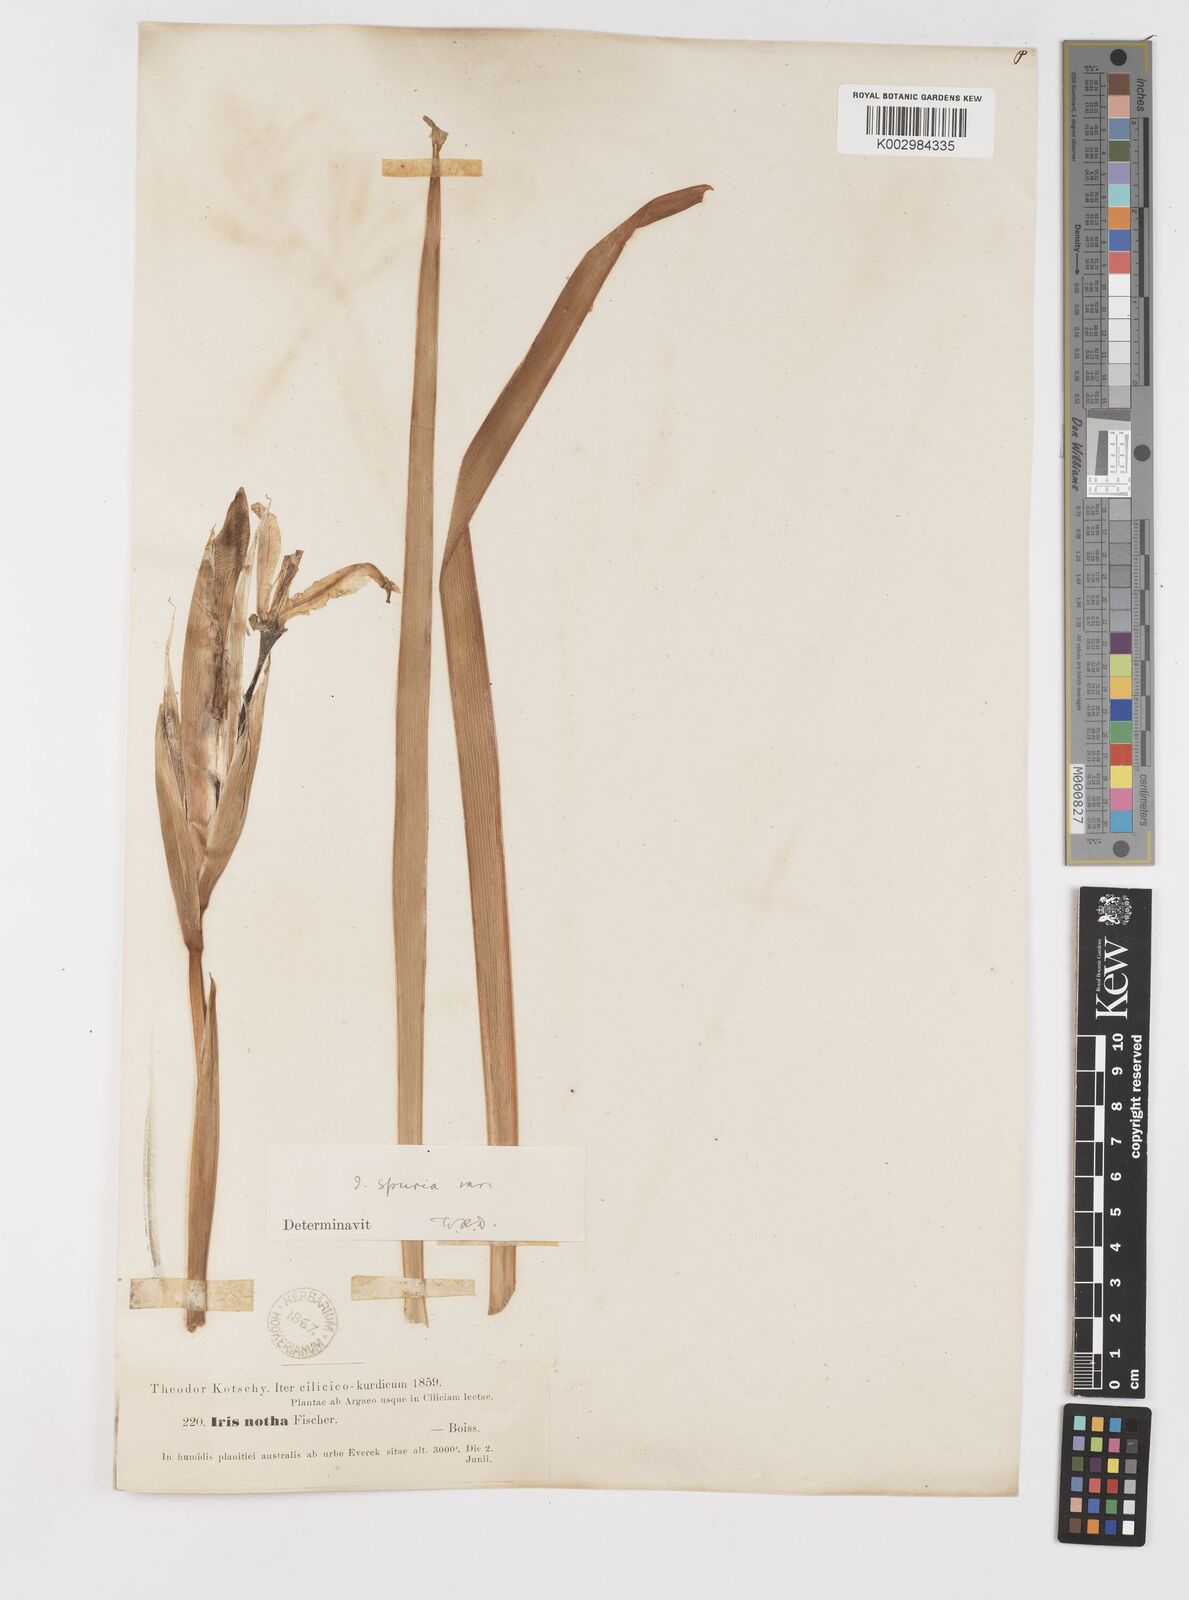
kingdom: Plantae
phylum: Tracheophyta
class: Liliopsida
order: Asparagales
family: Iridaceae
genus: Iris
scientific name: Iris spuria
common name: Blue iris
